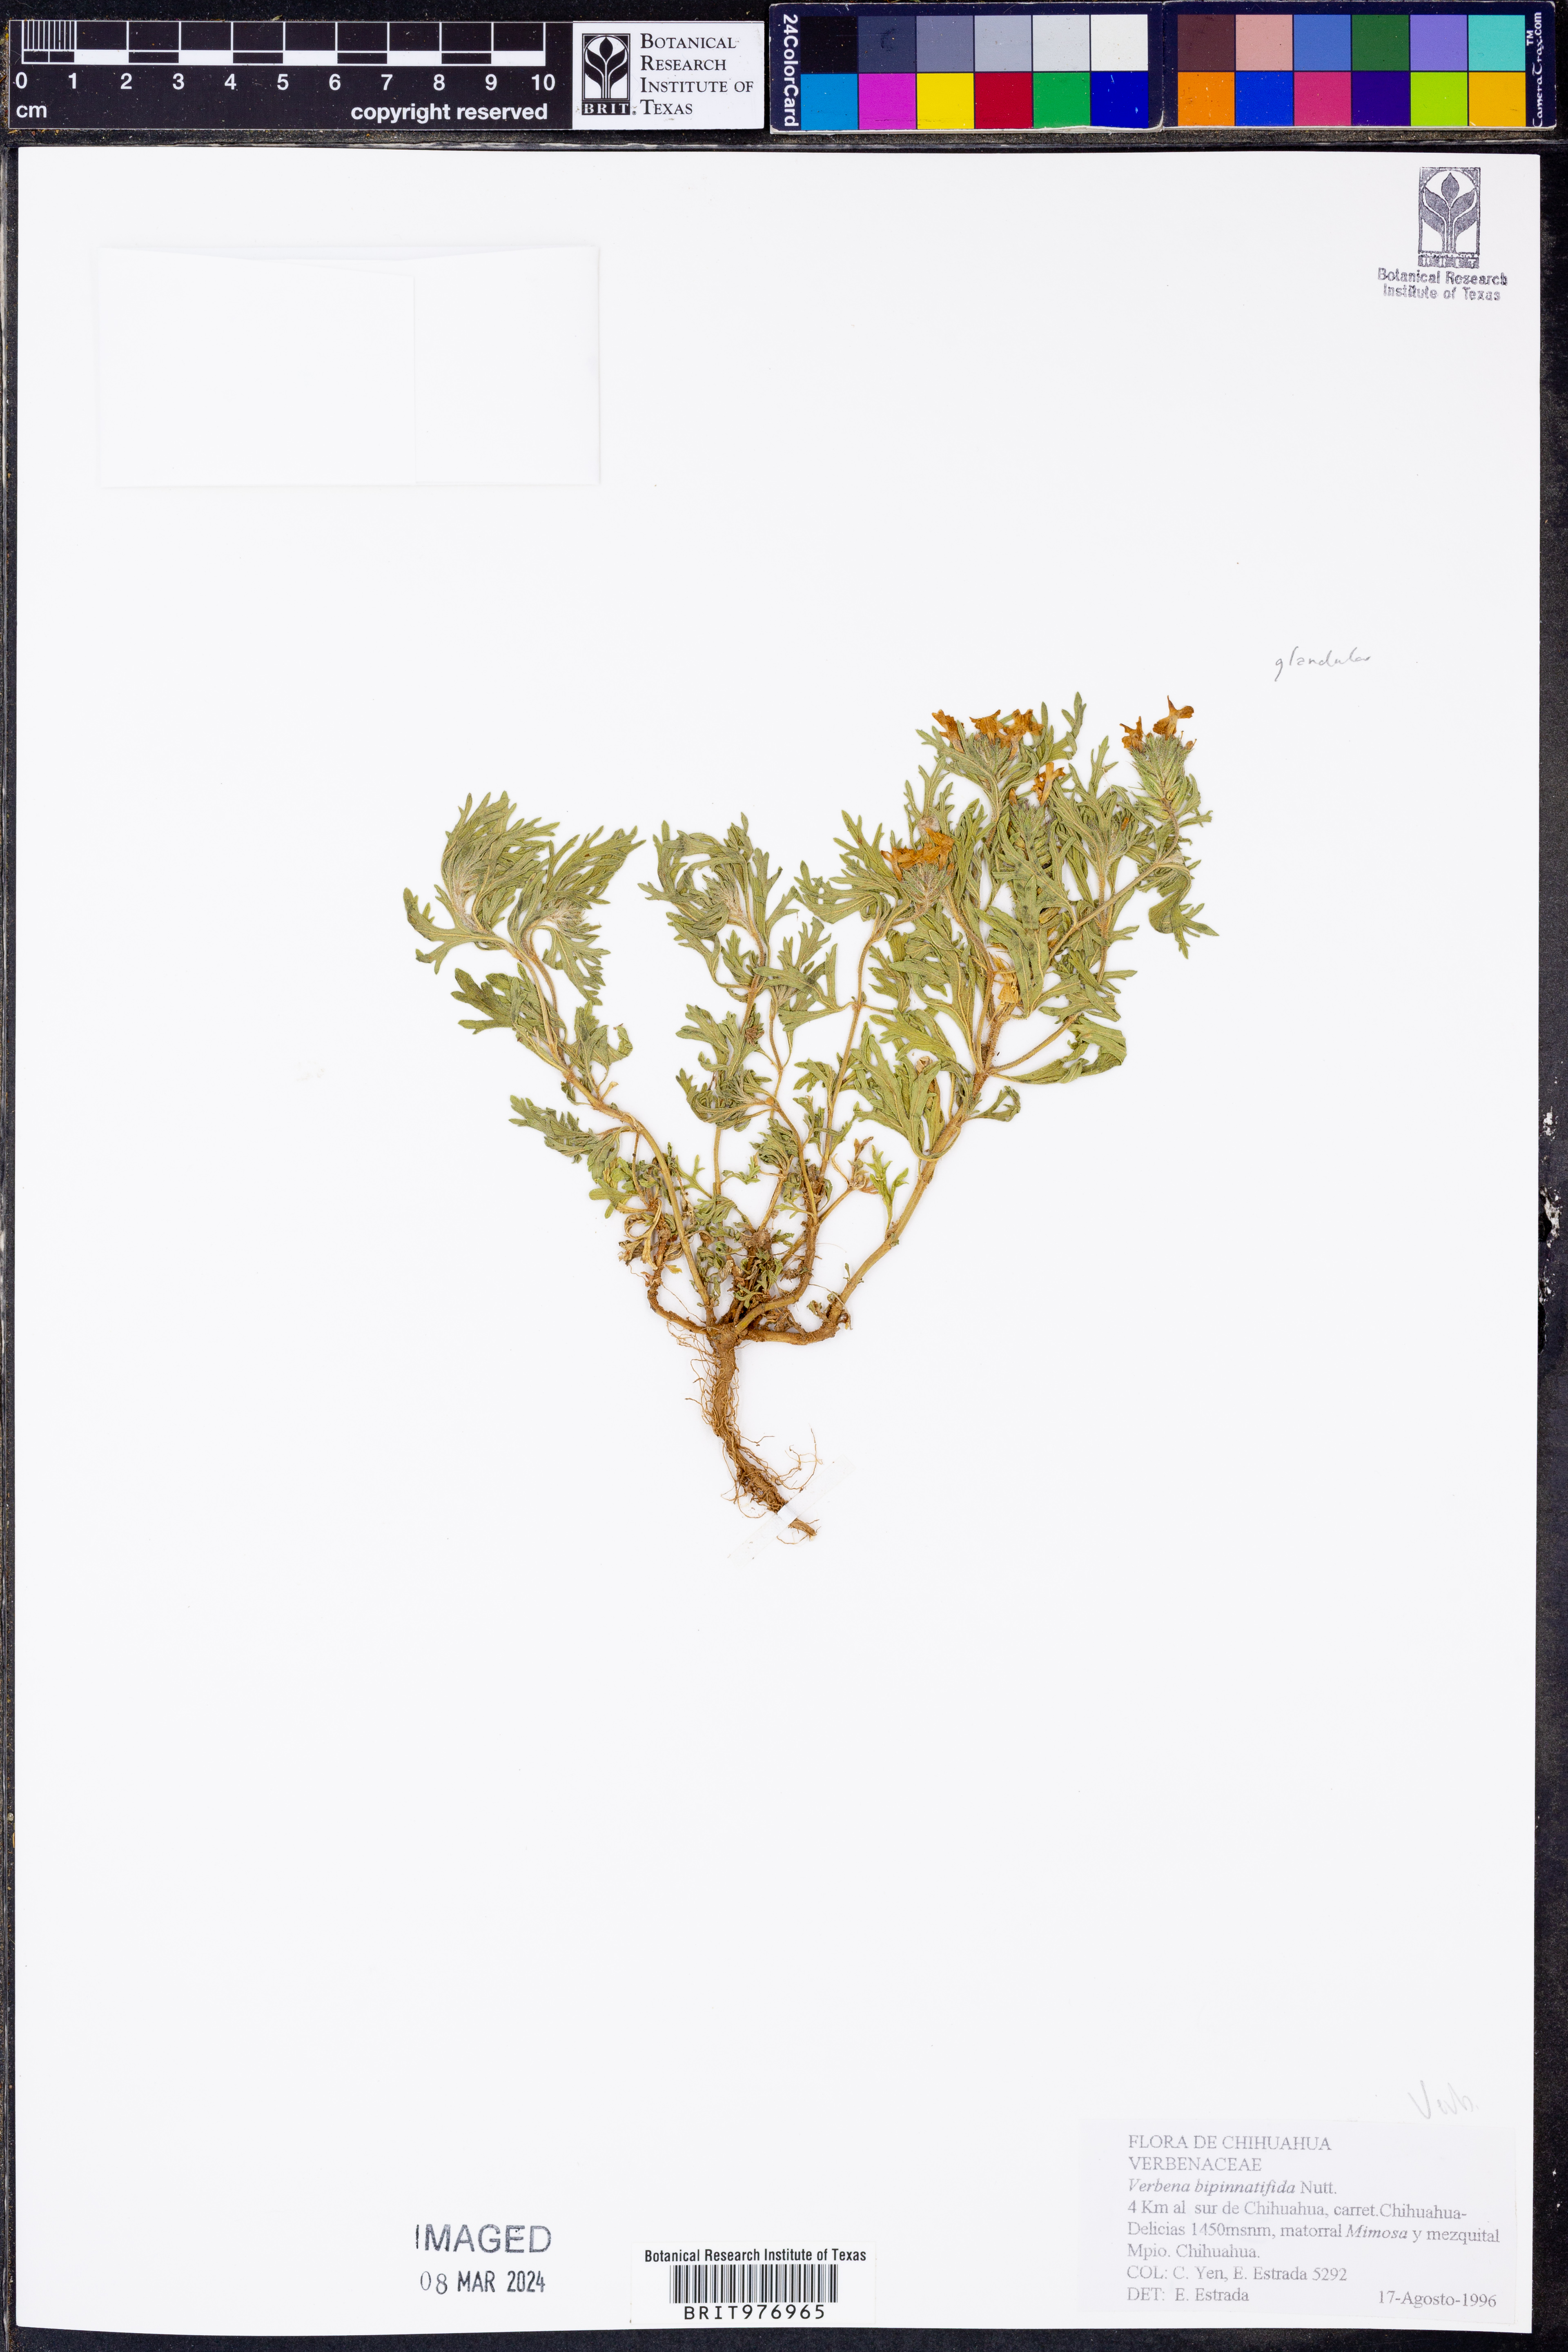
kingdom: Plantae
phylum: Tracheophyta
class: Magnoliopsida
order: Lamiales
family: Verbenaceae
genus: Verbena
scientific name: Verbena
